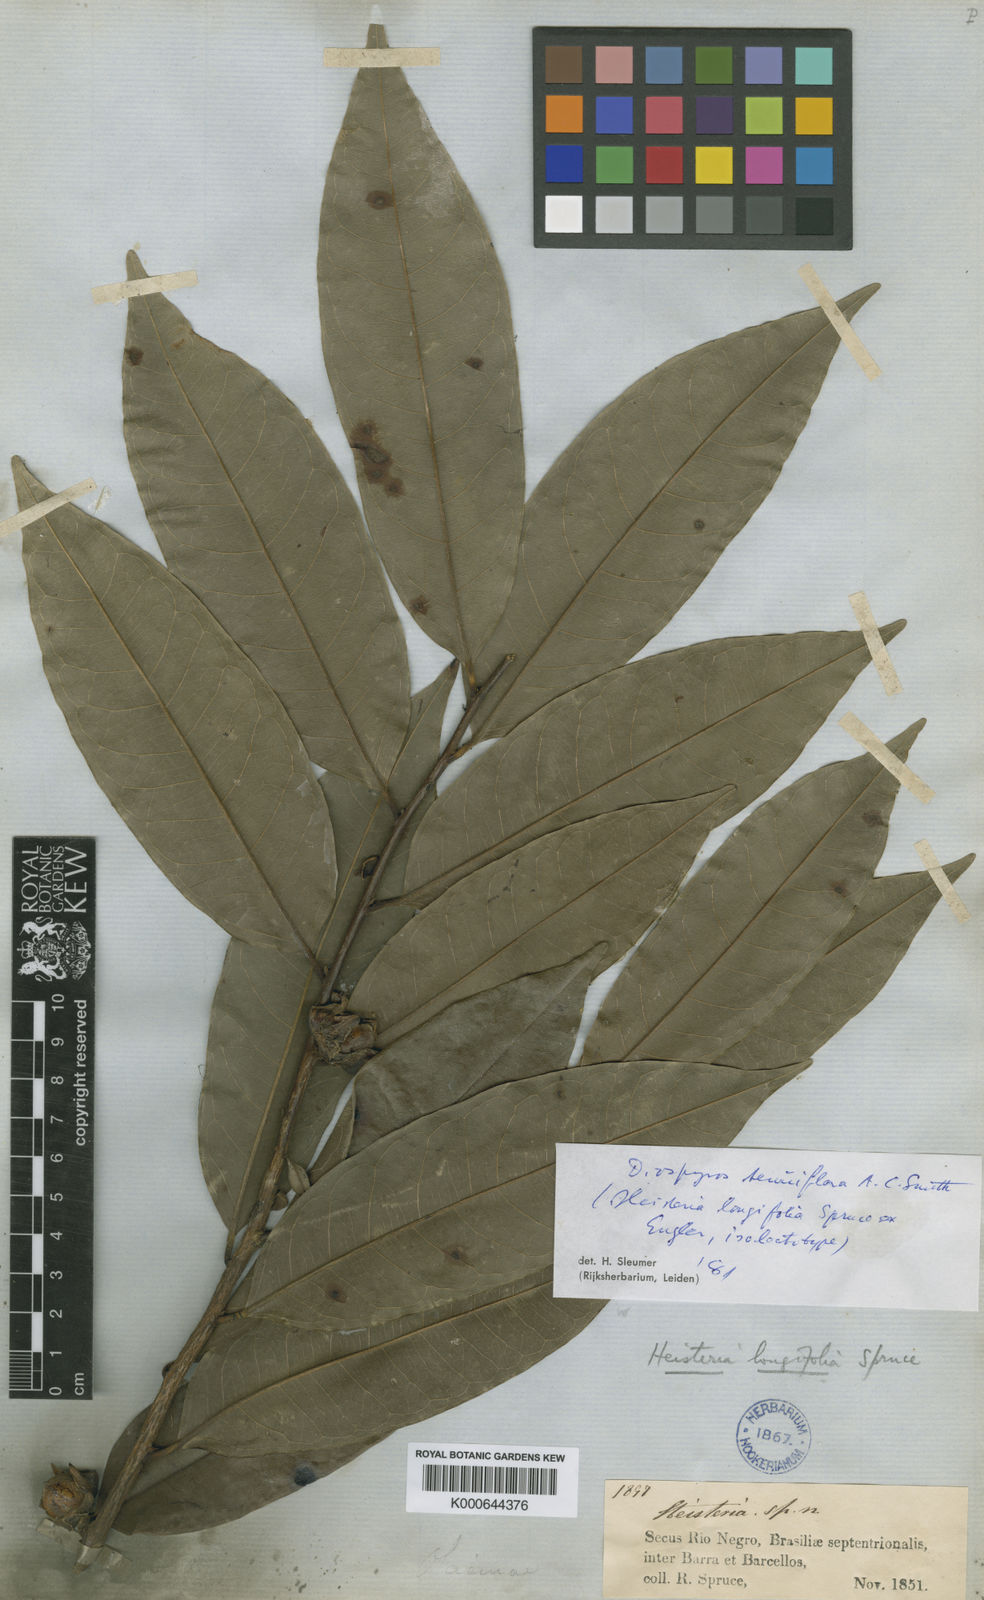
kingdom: Plantae
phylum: Tracheophyta
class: Magnoliopsida
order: Ericales
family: Ebenaceae
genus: Diospyros
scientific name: Diospyros tenuiflora
